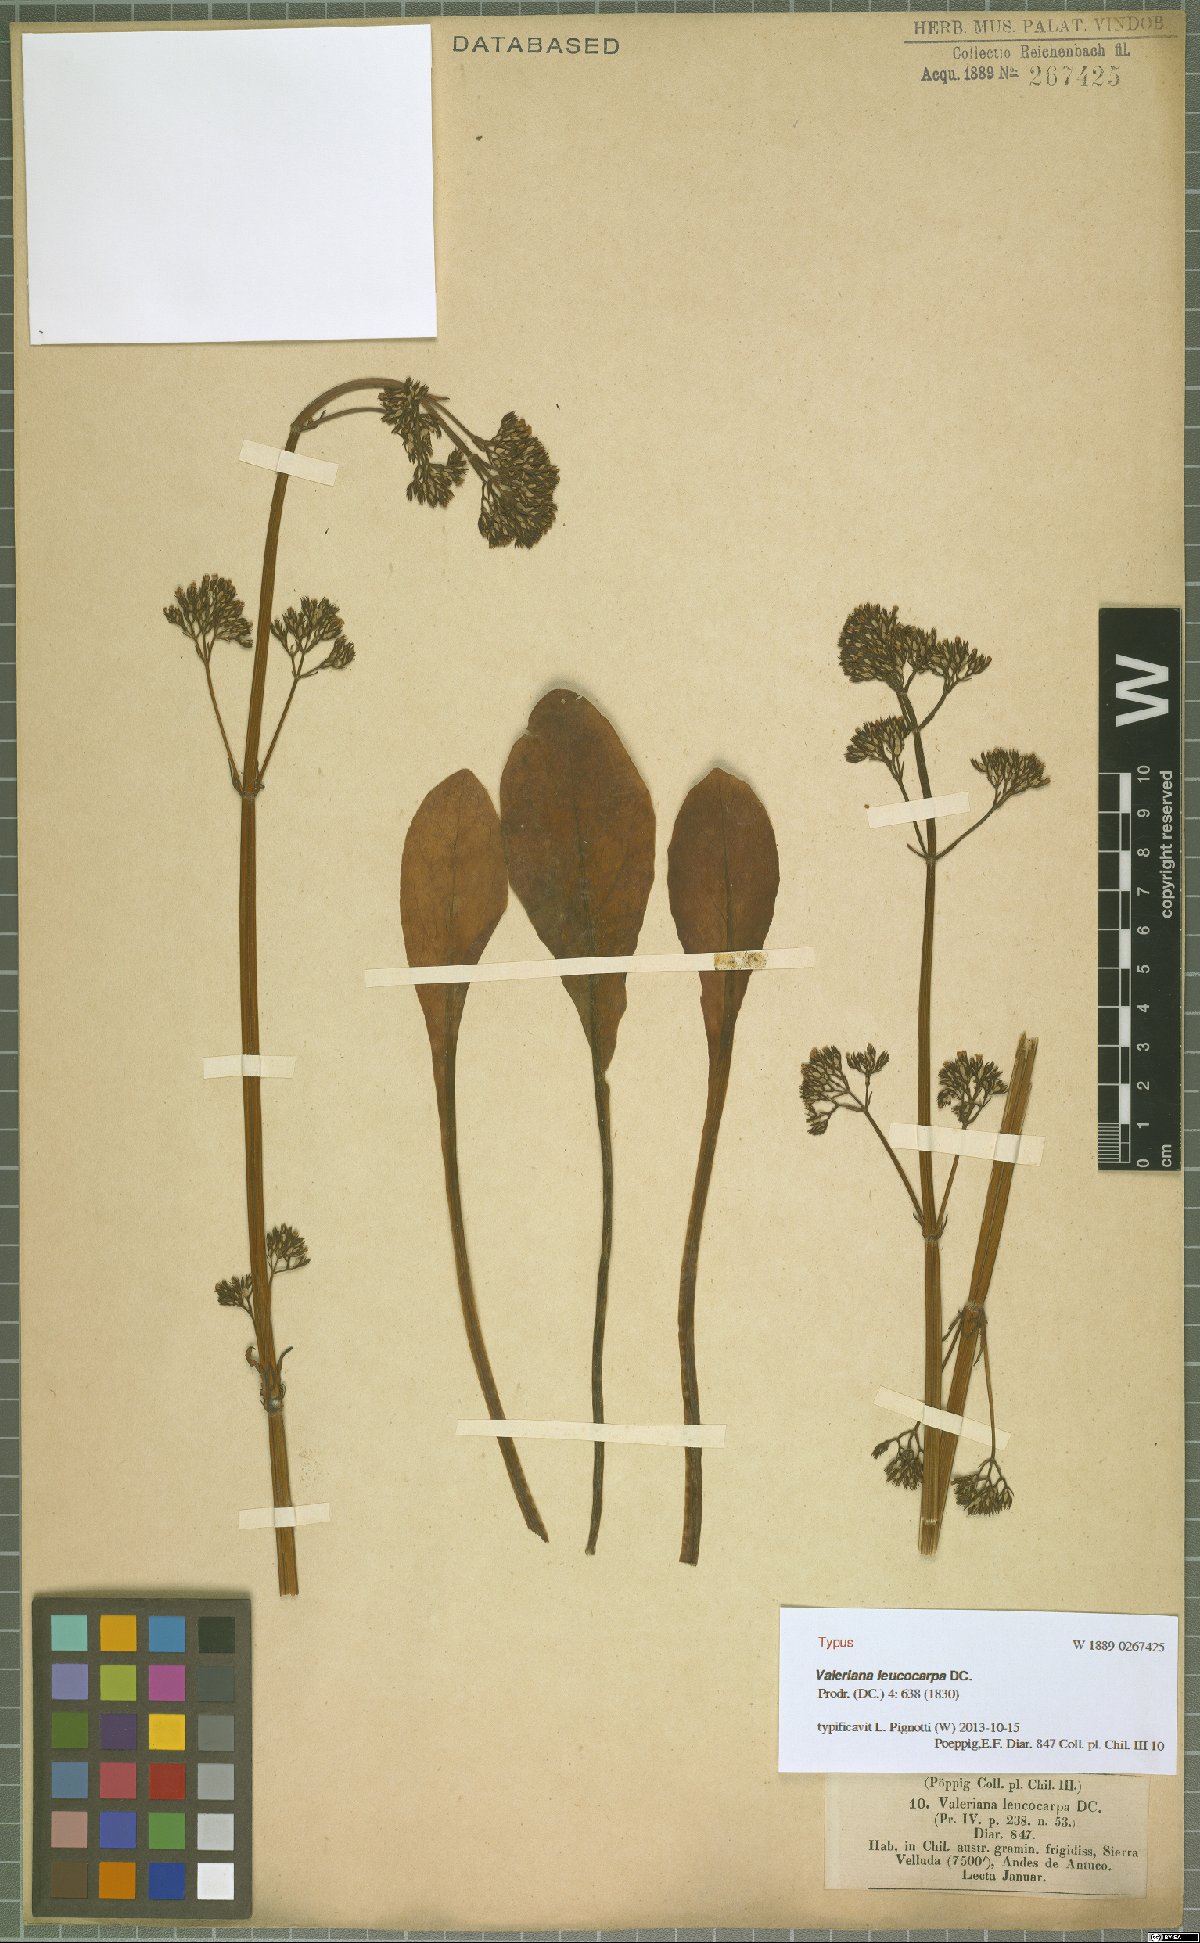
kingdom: Plantae
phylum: Tracheophyta
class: Magnoliopsida
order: Dipsacales
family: Caprifoliaceae
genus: Valeriana
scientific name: Valeriana leucocarpa
